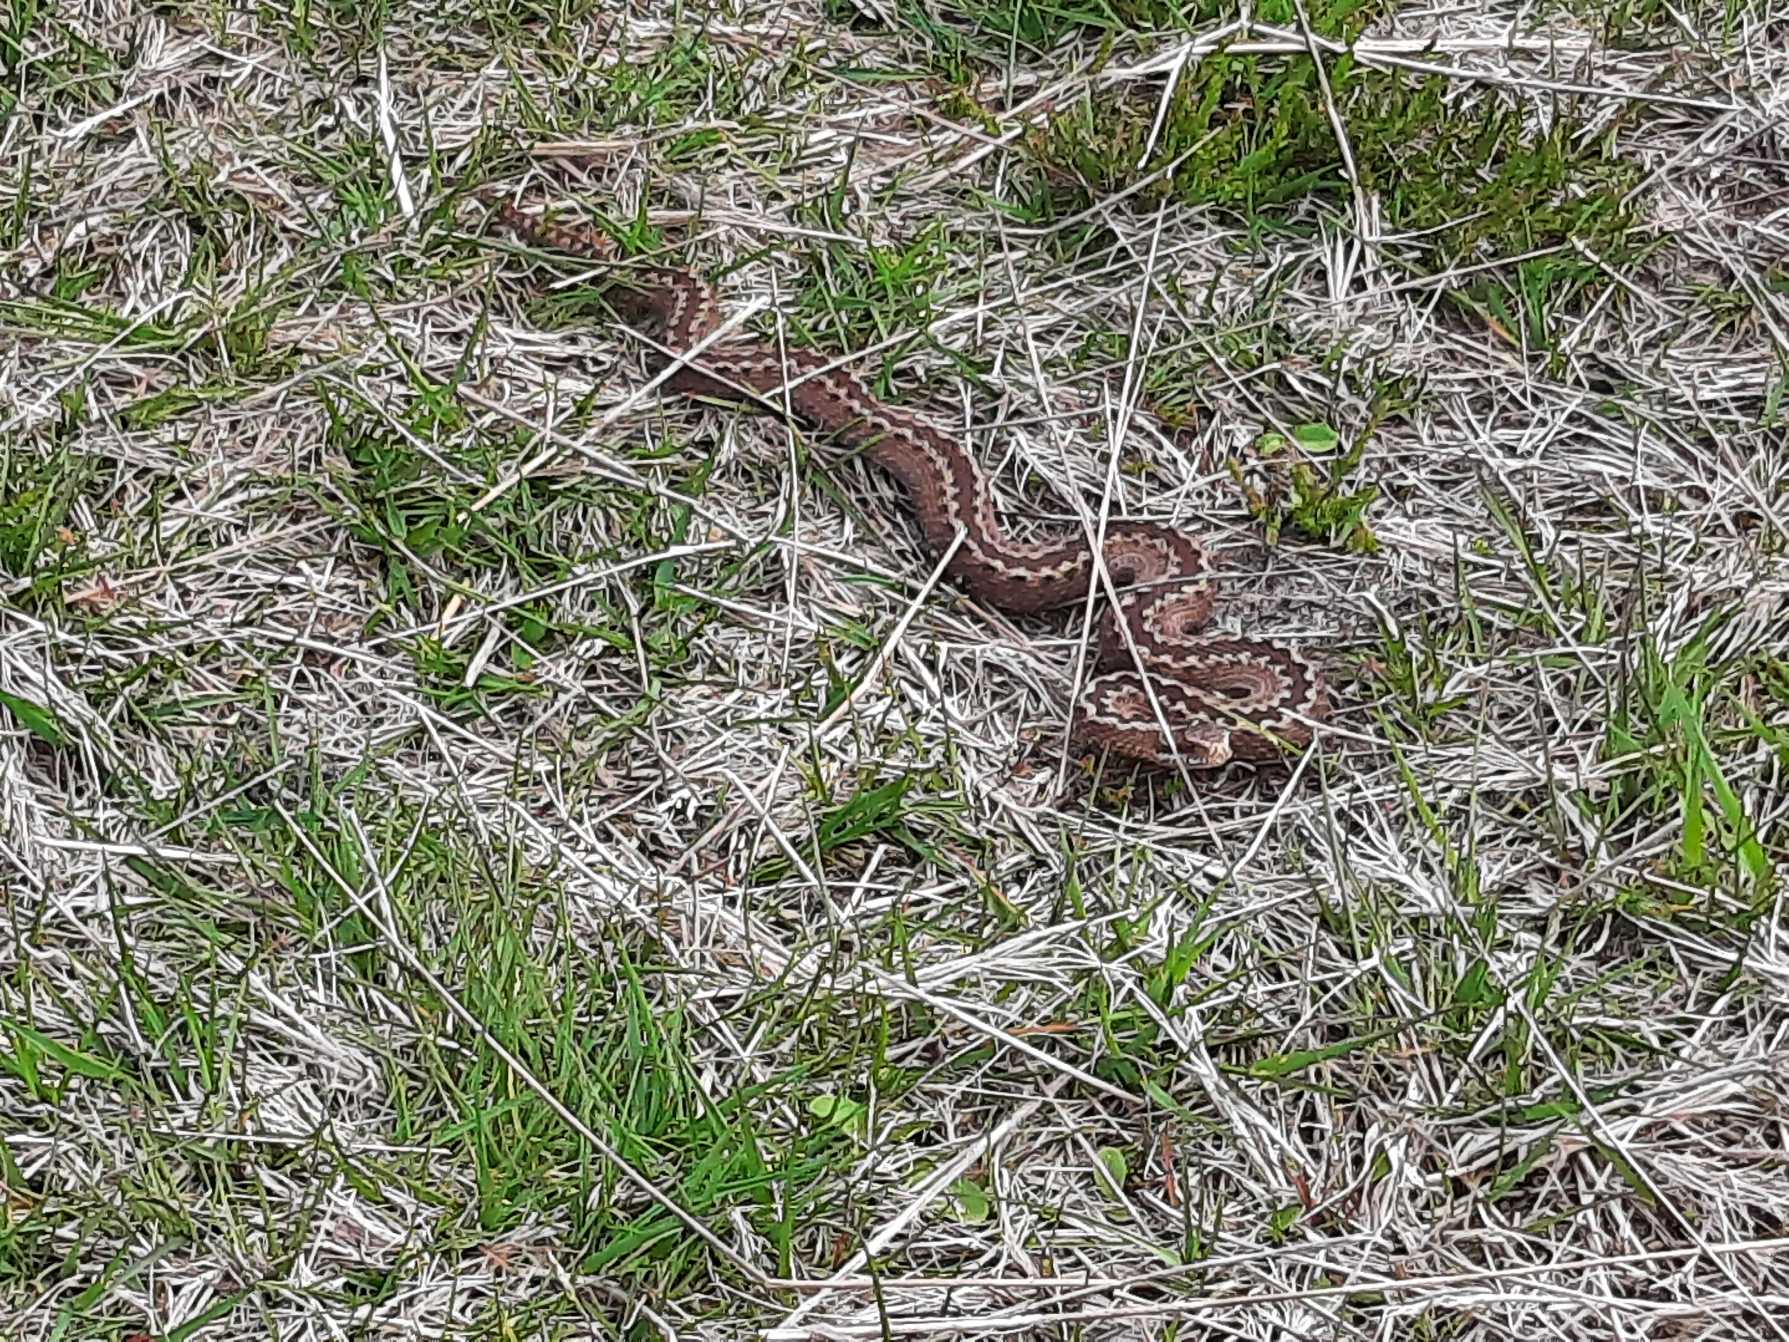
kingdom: Animalia
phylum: Chordata
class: Squamata
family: Viperidae
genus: Vipera
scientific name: Vipera berus
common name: Hugorm
